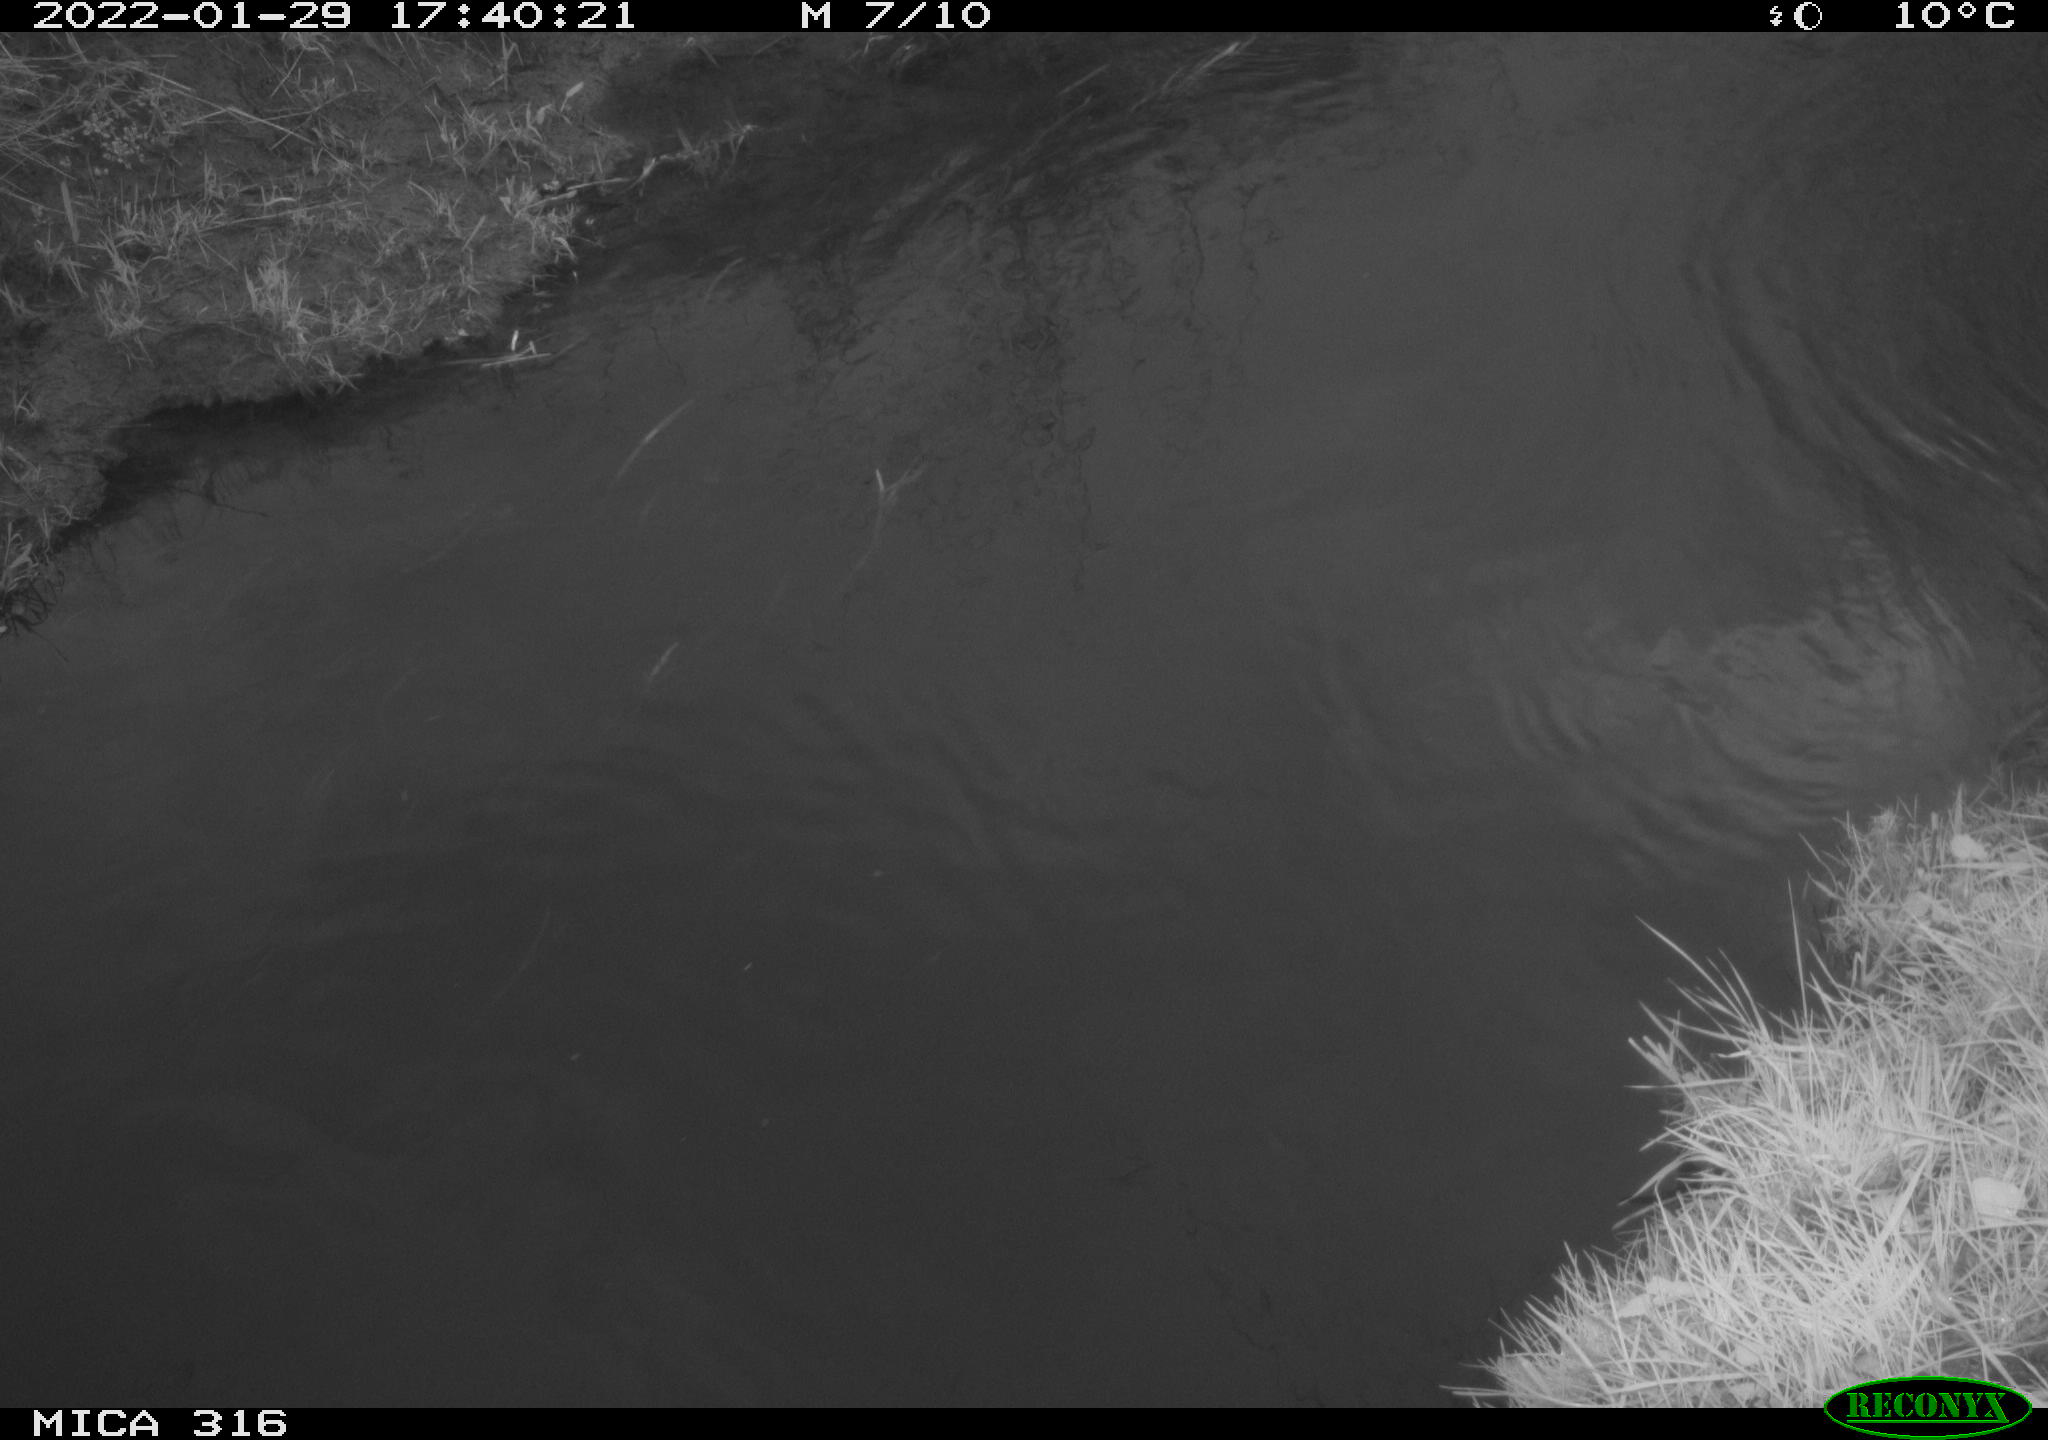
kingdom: Animalia
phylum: Chordata
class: Aves
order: Gruiformes
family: Rallidae
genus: Gallinula
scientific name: Gallinula chloropus
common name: Common moorhen
